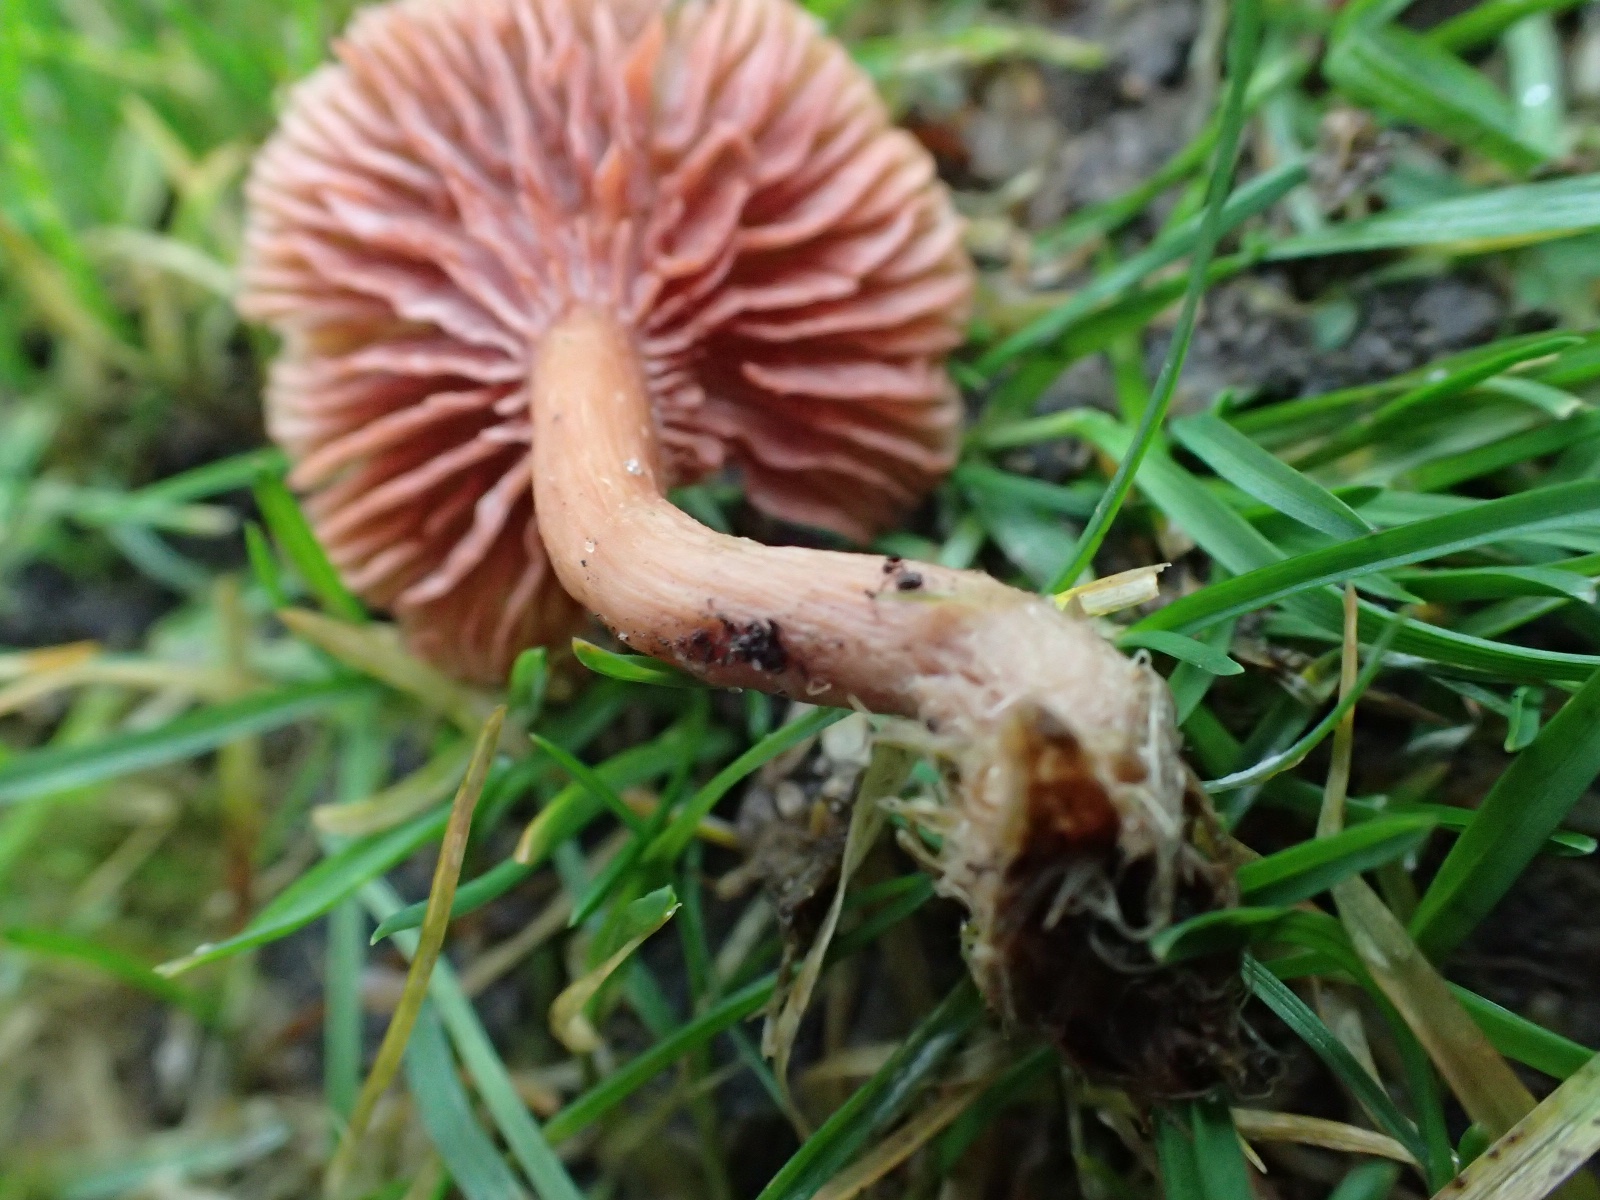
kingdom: Fungi
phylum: Basidiomycota
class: Agaricomycetes
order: Agaricales
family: Hydnangiaceae
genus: Laccaria
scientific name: Laccaria
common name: ametysthat
